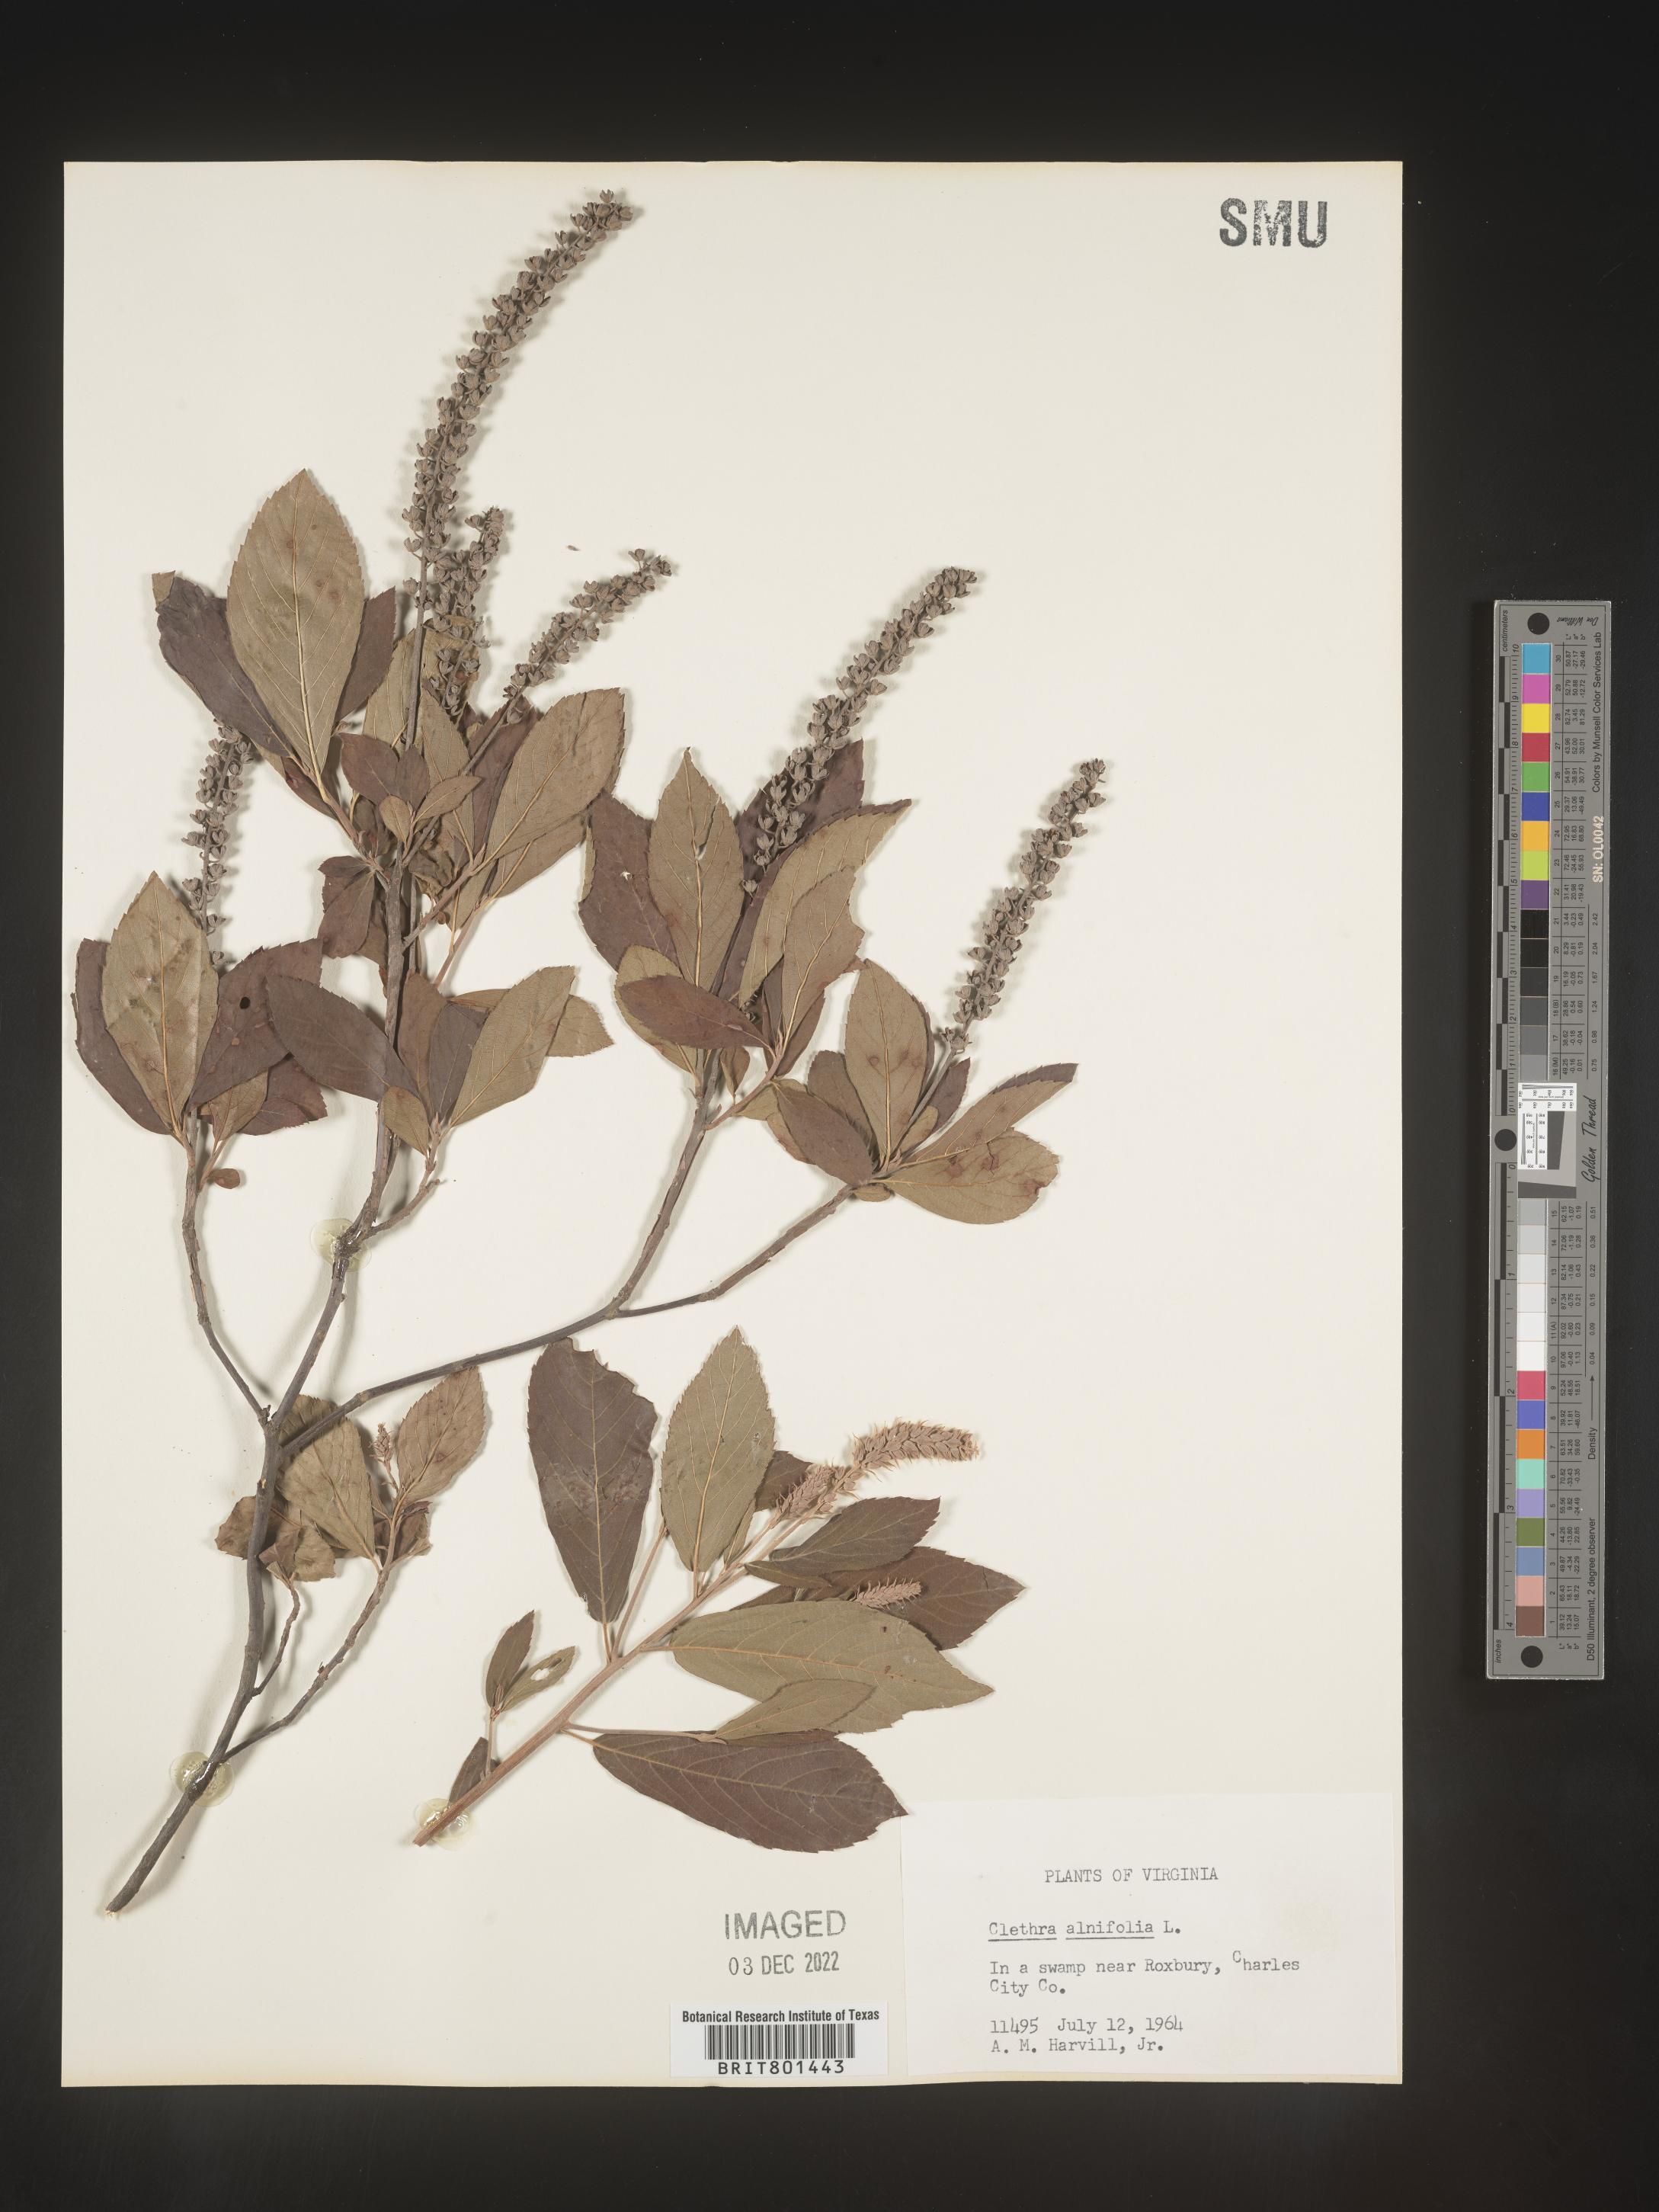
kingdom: Plantae
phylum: Tracheophyta
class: Magnoliopsida
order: Ericales
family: Clethraceae
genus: Clethra
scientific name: Clethra alnifolia
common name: Sweet pepperbush
